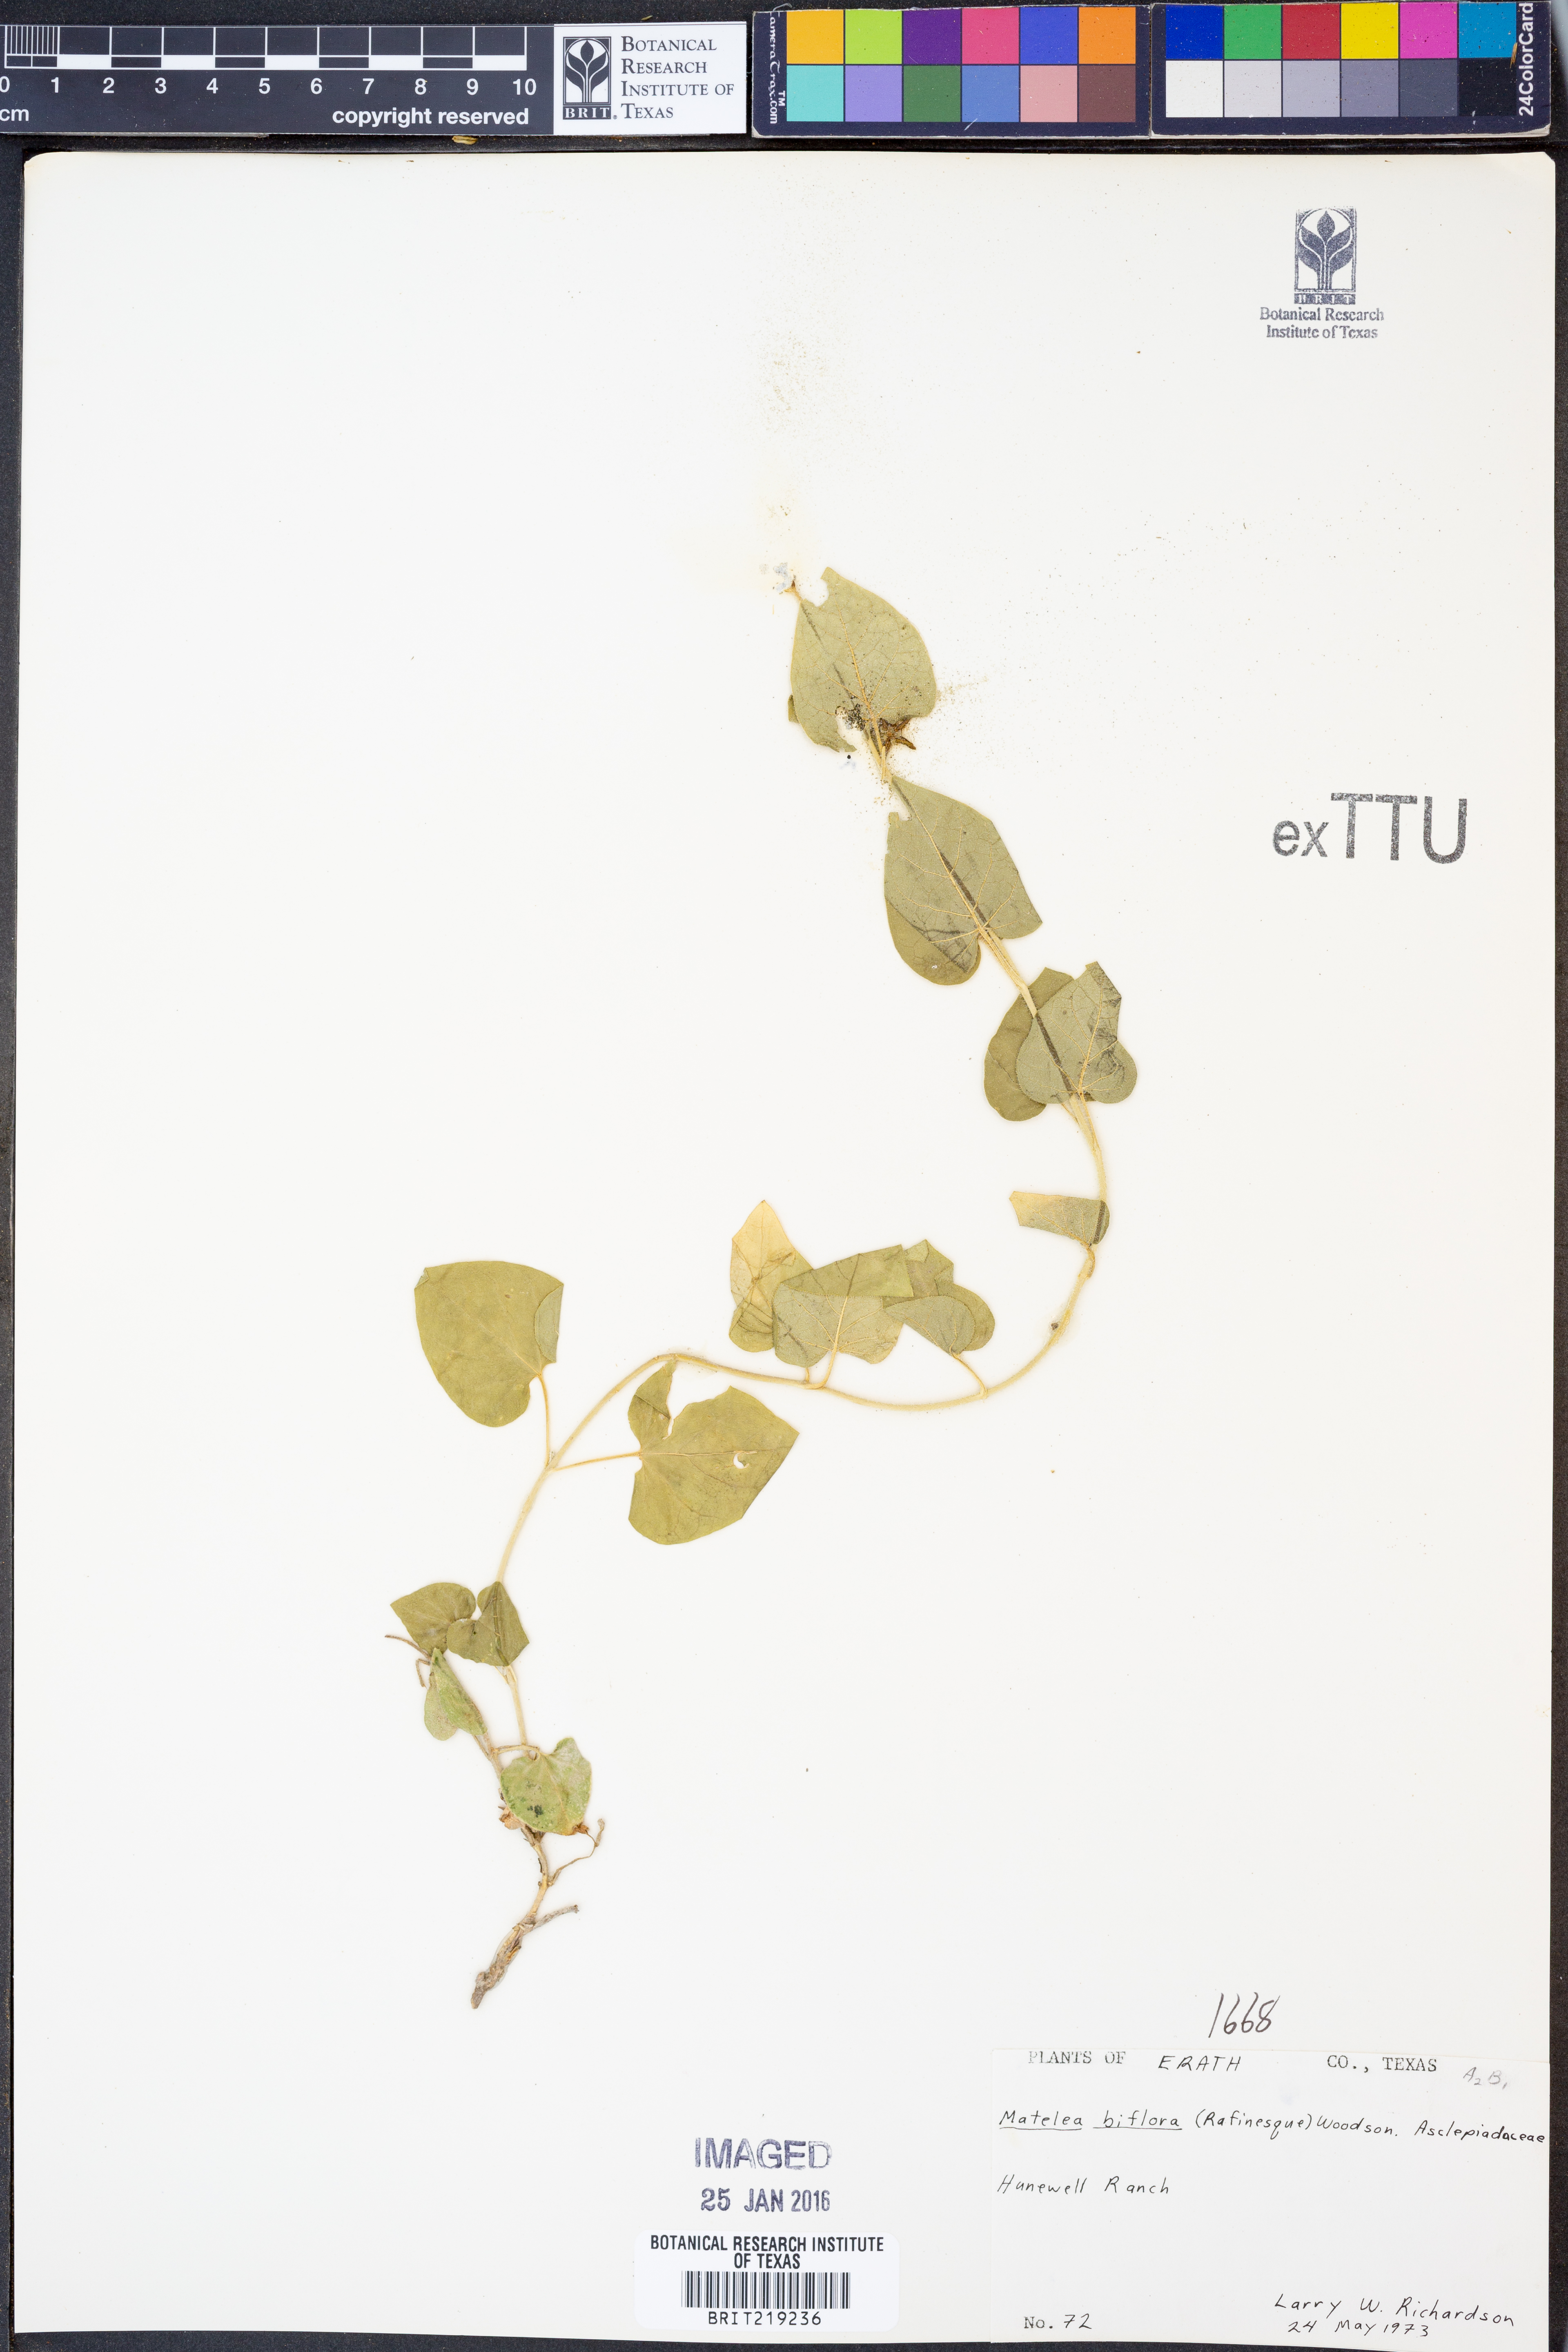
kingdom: Plantae
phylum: Tracheophyta
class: Magnoliopsida
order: Gentianales
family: Apocynaceae
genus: Chthamalia
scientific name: Chthamalia biflora
